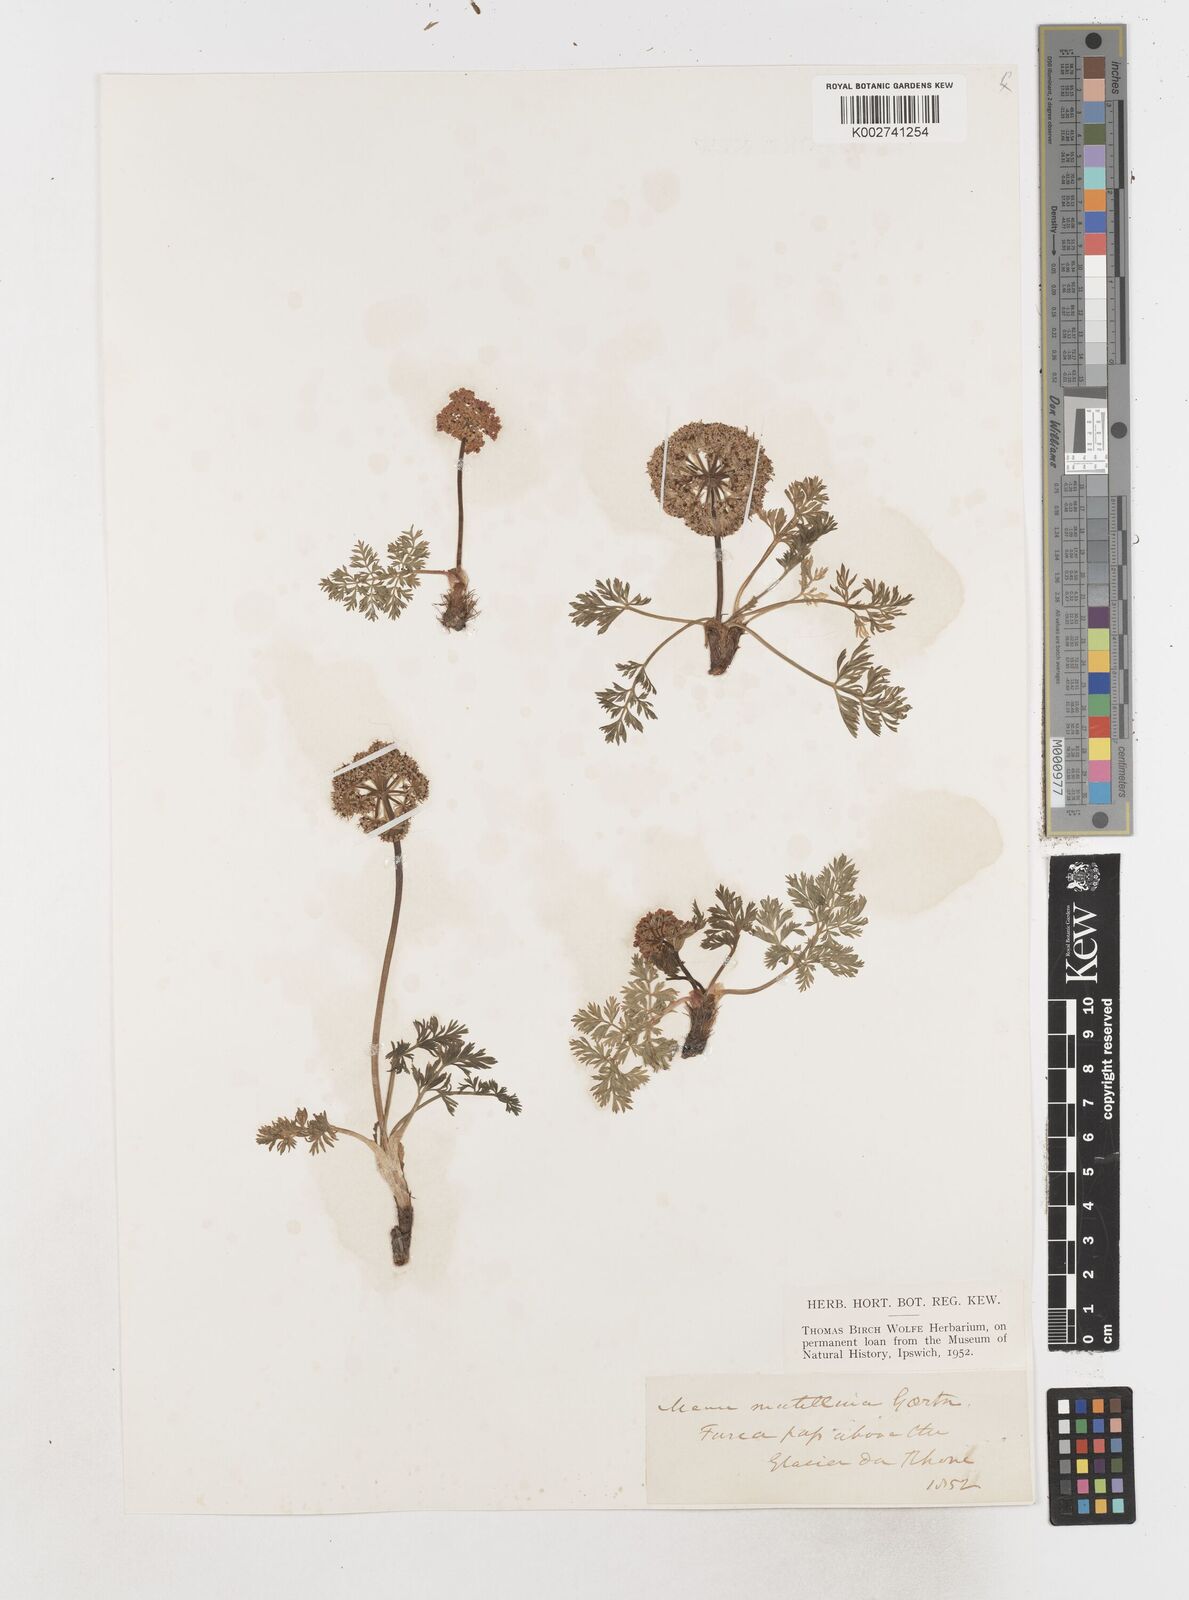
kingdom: Plantae
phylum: Tracheophyta
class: Magnoliopsida
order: Apiales
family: Apiaceae
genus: Mutellina
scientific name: Mutellina adonidifolia
